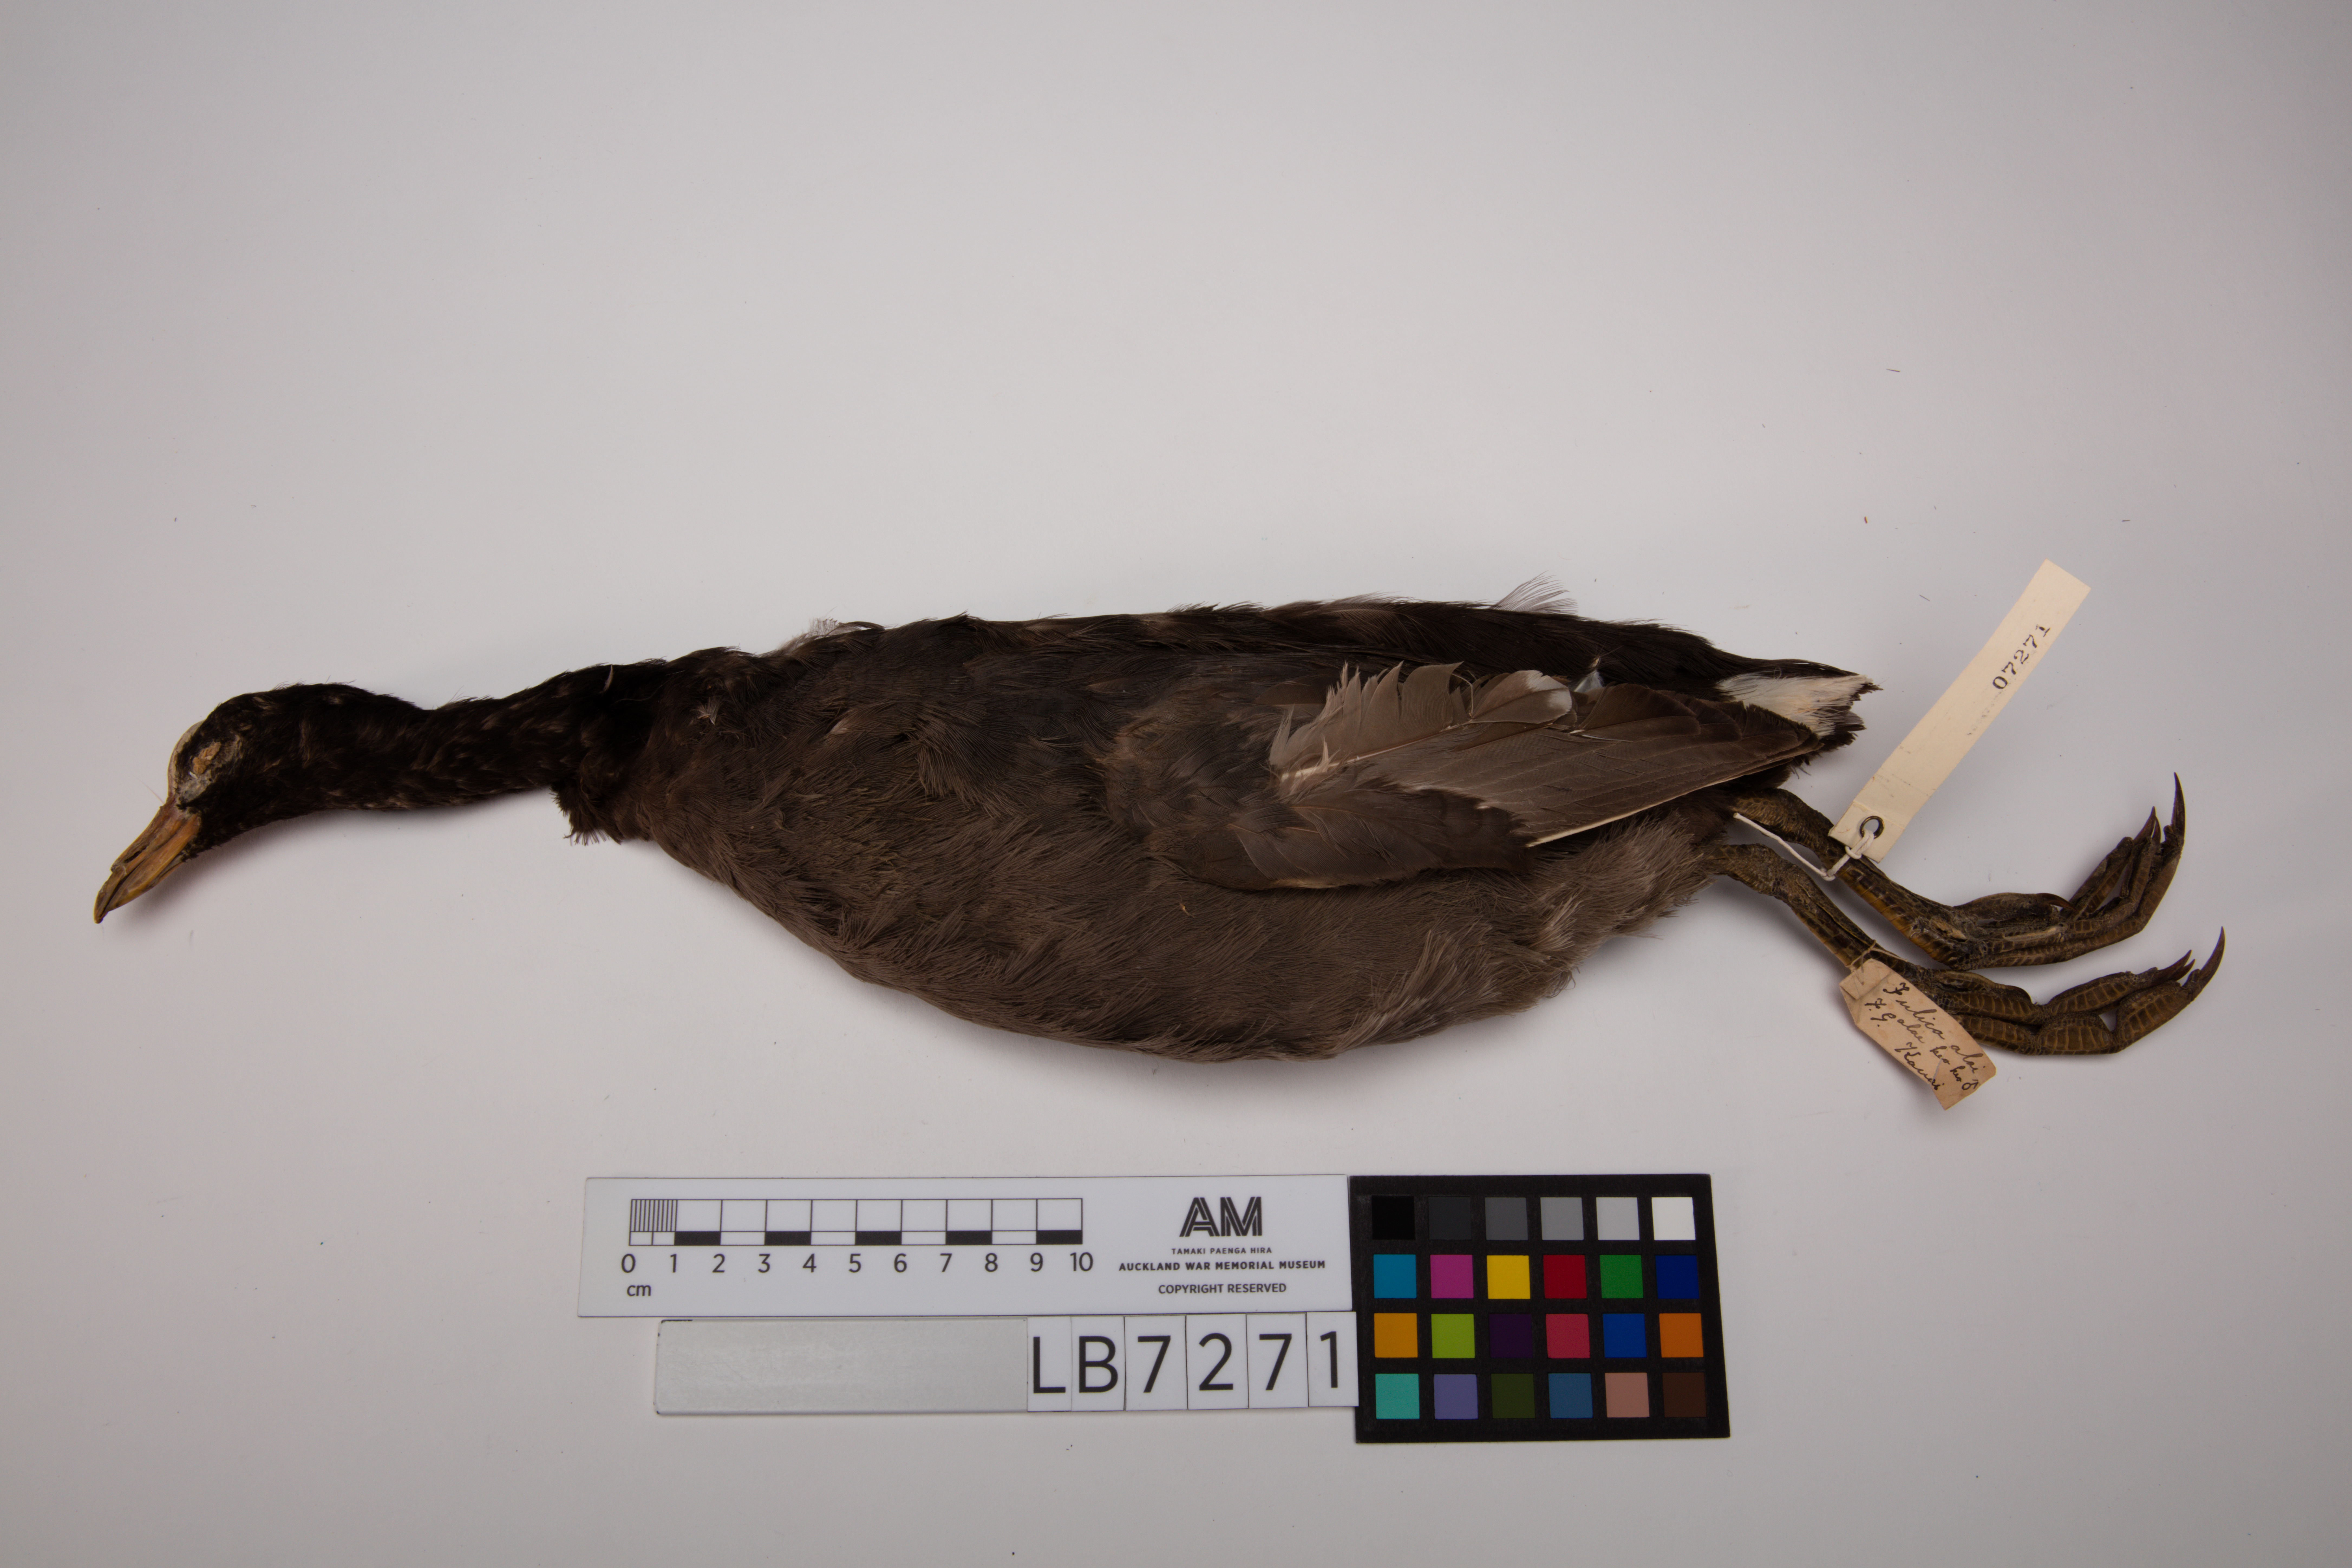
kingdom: Animalia
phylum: Chordata
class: Aves
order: Gruiformes
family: Rallidae
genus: Fulica
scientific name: Fulica americana
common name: American coot
